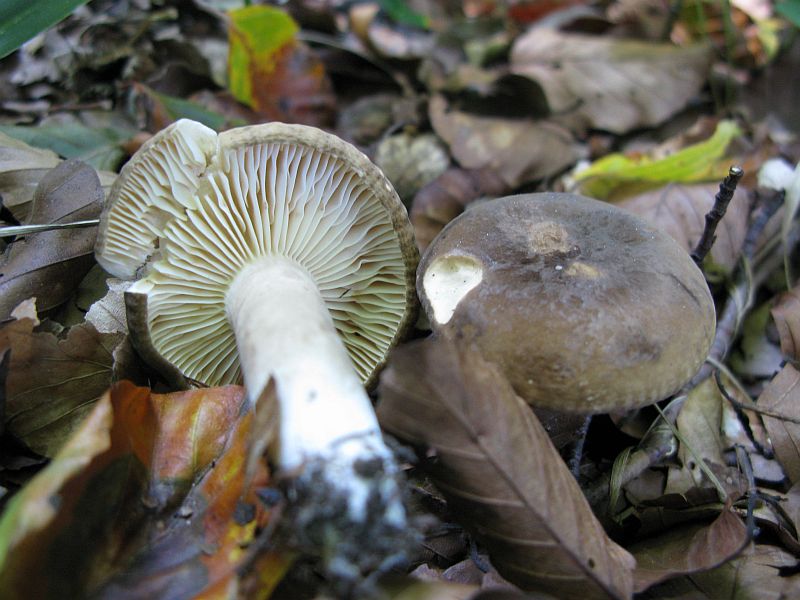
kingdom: Fungi
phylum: Basidiomycota
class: Agaricomycetes
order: Russulales
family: Russulaceae
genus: Lactarius
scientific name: Lactarius romagnesii
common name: fjernbladet mælkehat
